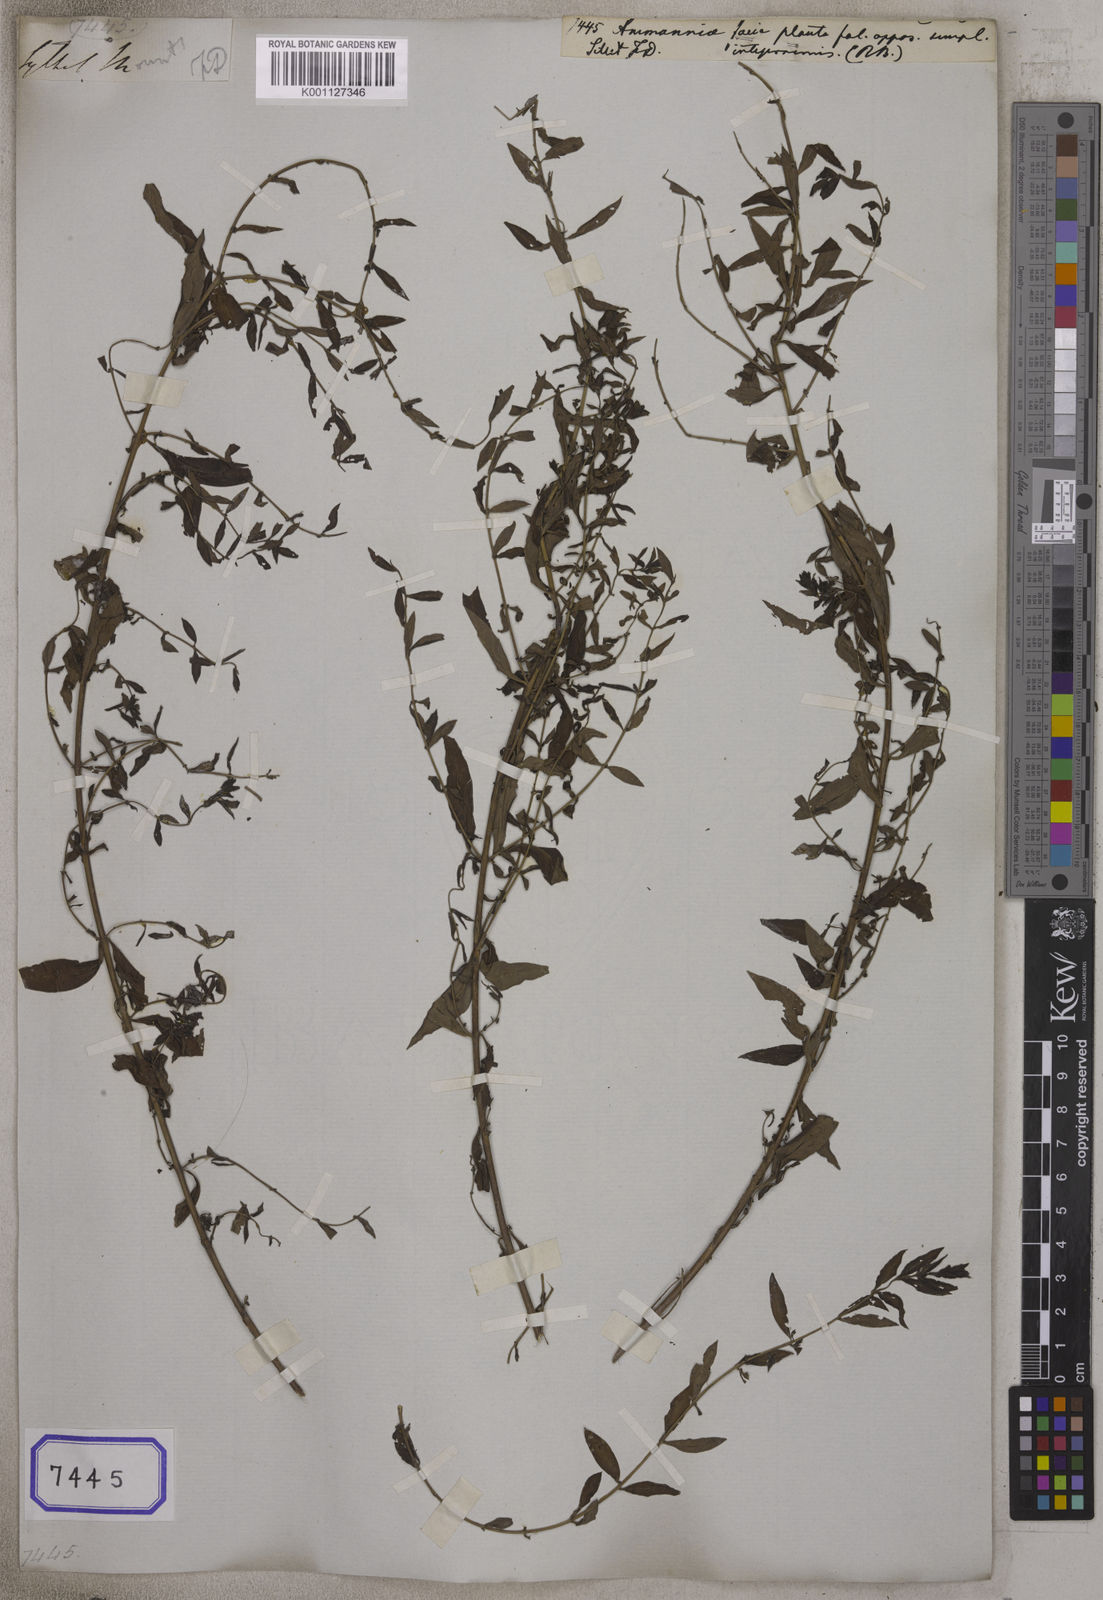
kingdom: Plantae
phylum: Tracheophyta
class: Magnoliopsida
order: Myrtales
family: Lythraceae
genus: Ammannia
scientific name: Ammannia
